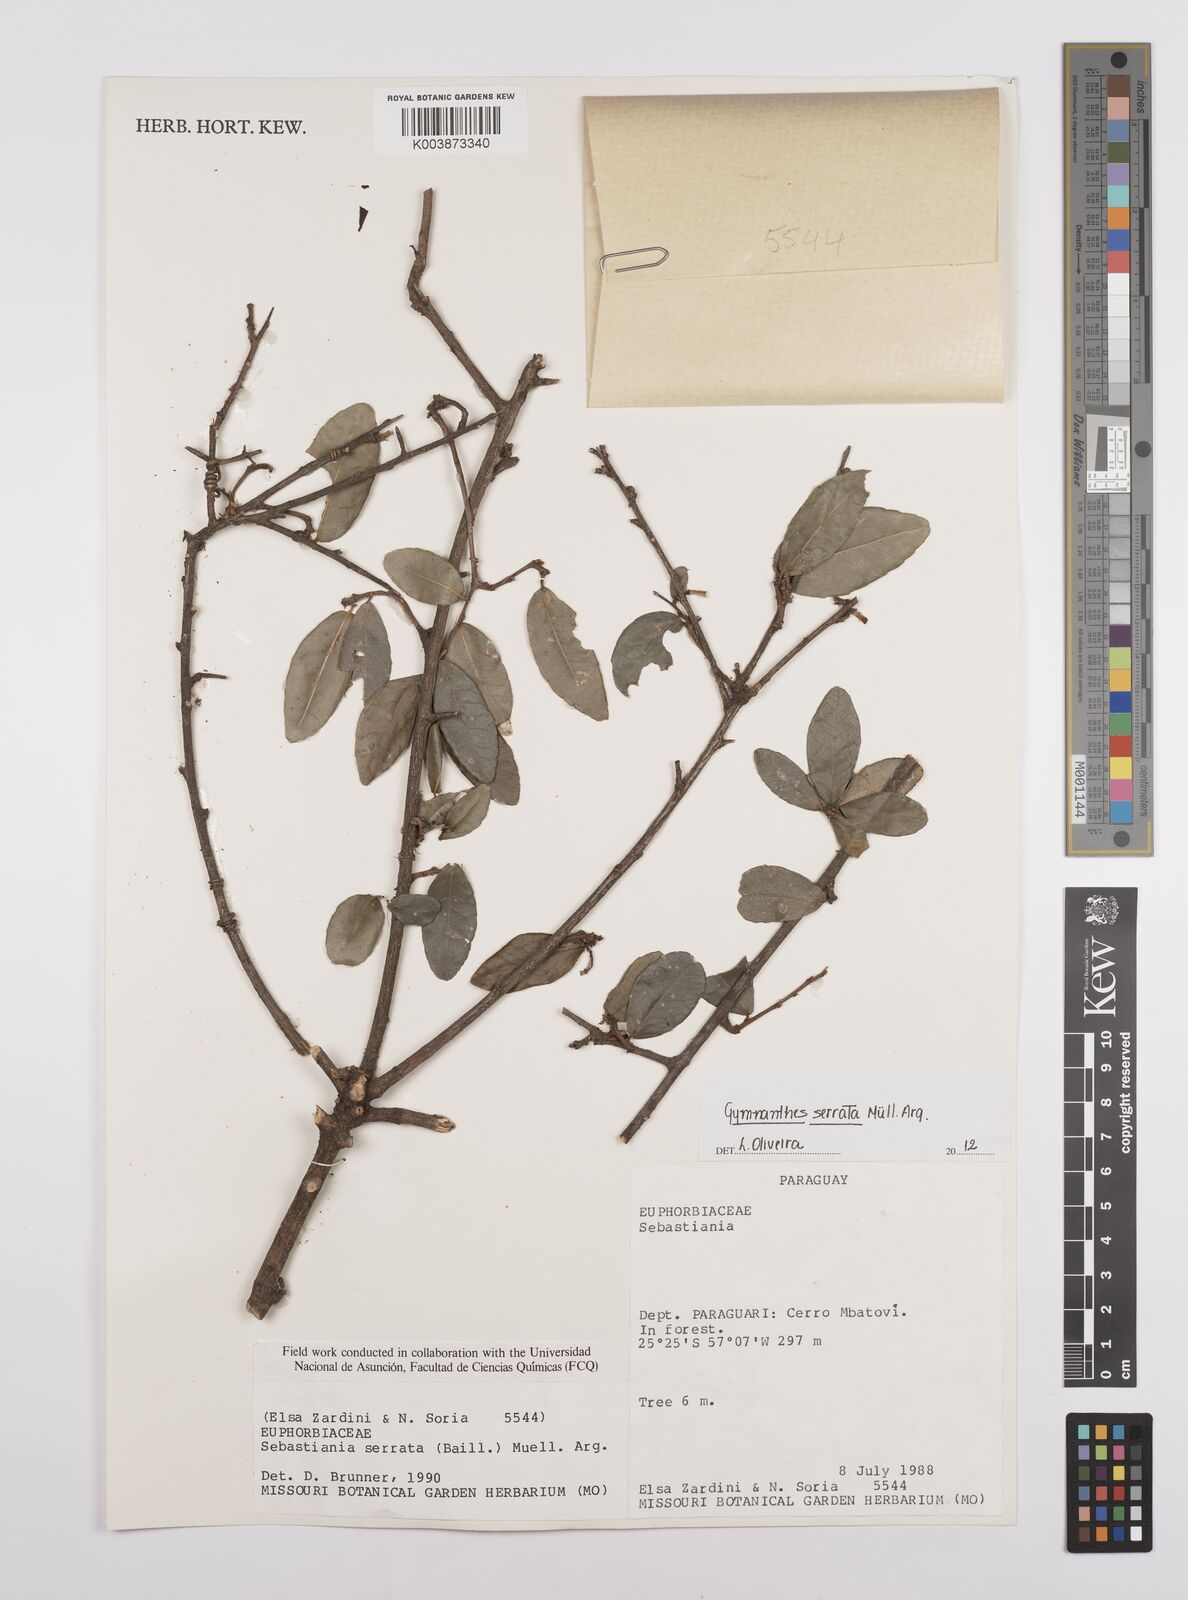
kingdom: Plantae
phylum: Tracheophyta
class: Magnoliopsida
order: Malpighiales
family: Euphorbiaceae
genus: Sebastiania
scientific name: Sebastiania serrata
